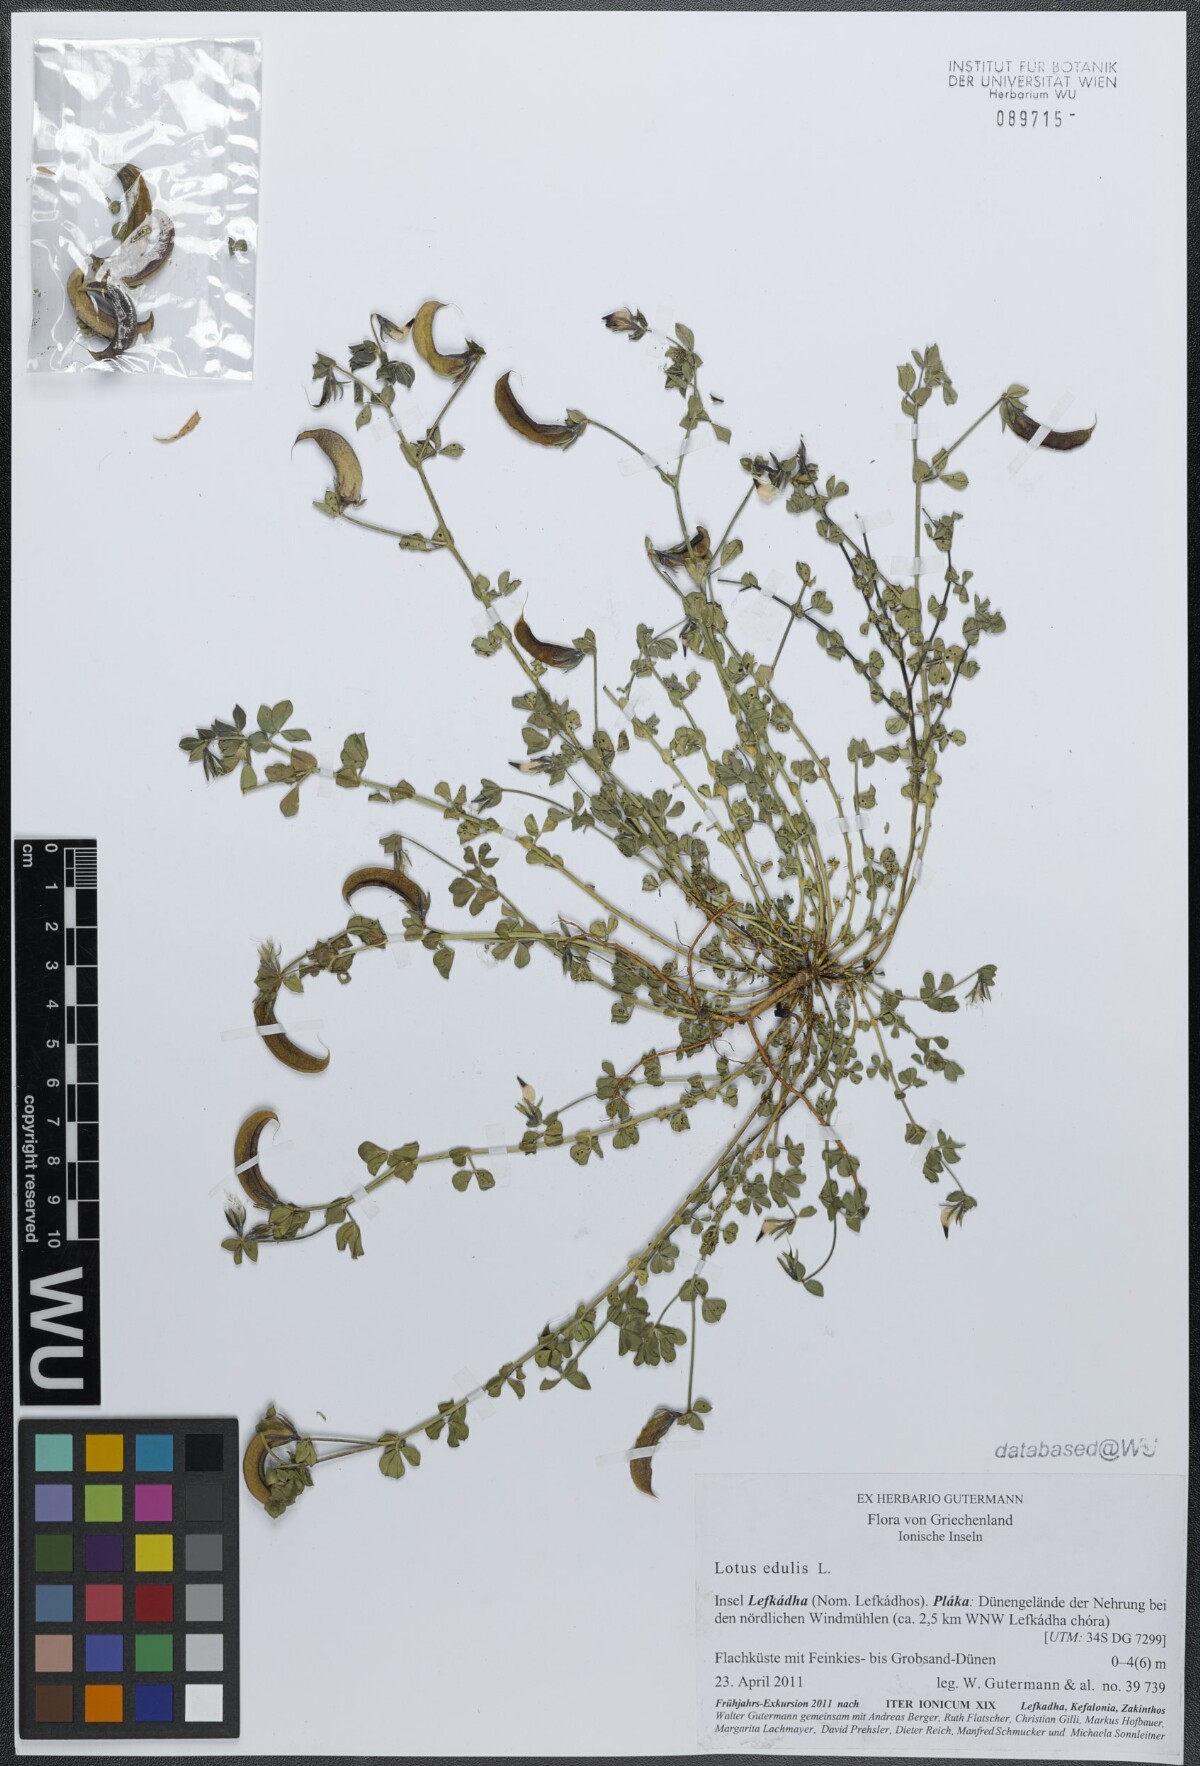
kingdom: Plantae
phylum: Tracheophyta
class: Magnoliopsida
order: Fabales
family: Fabaceae
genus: Lotus
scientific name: Lotus edulis
